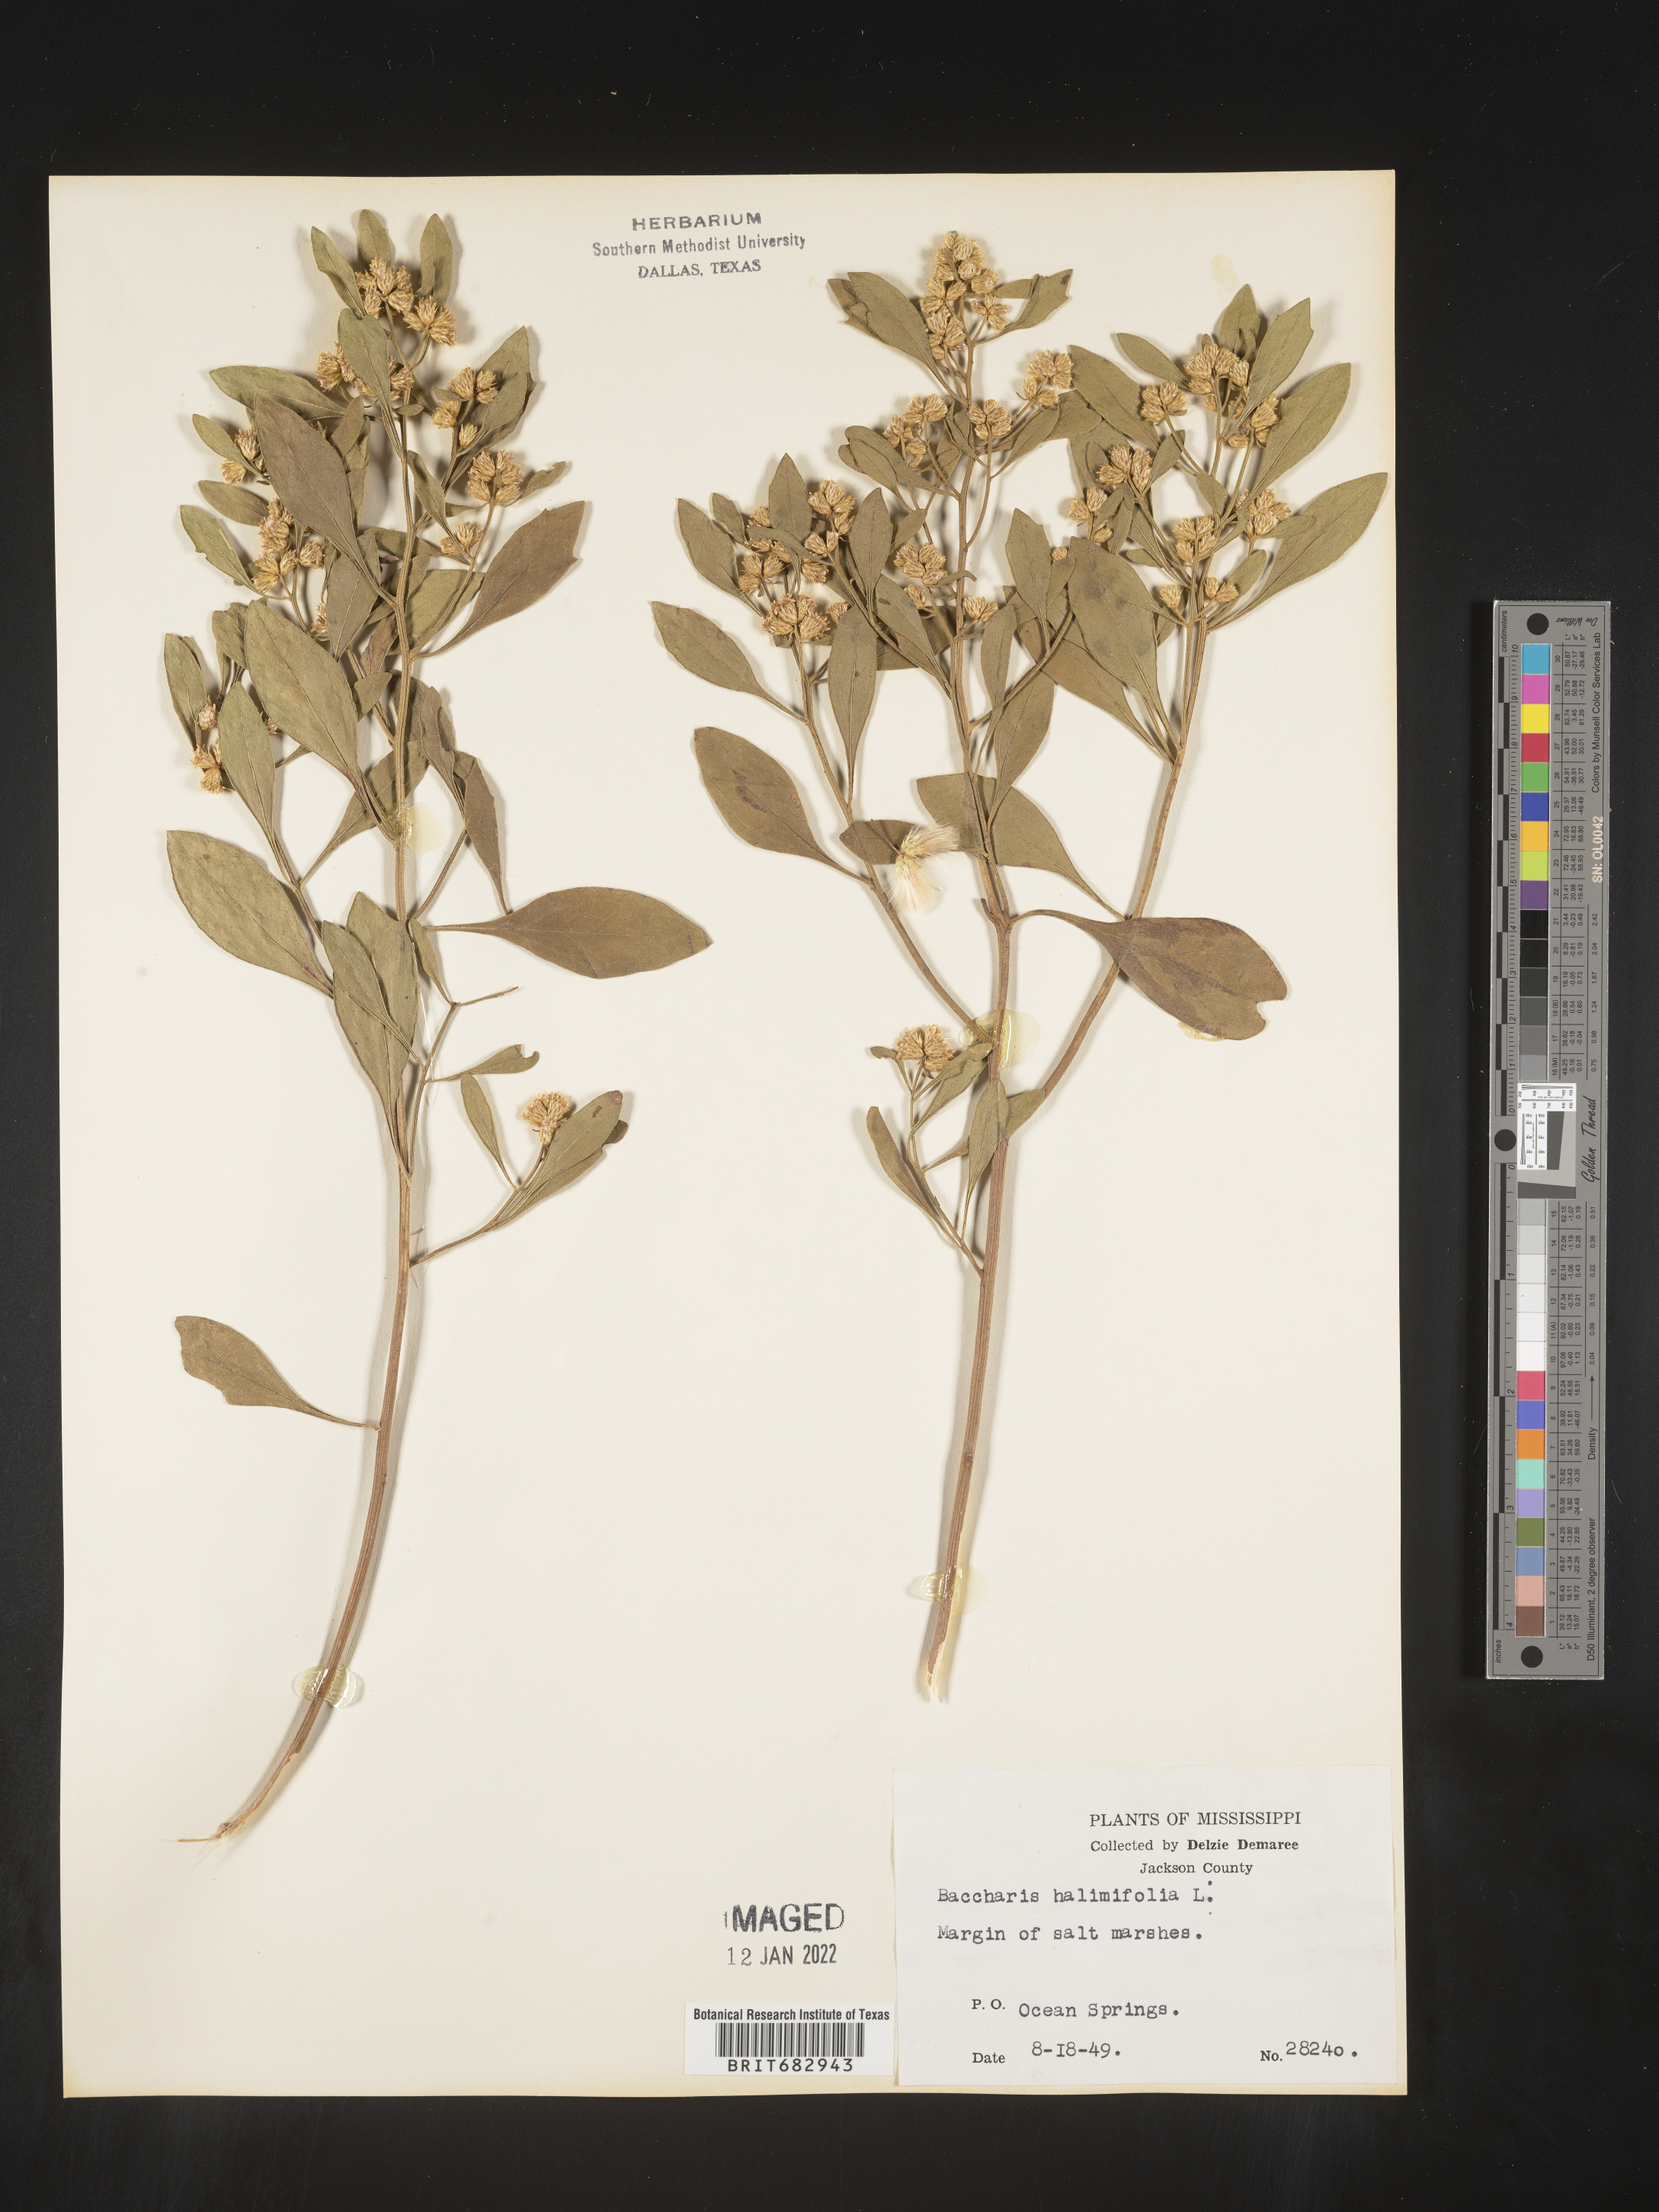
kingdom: Plantae
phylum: Tracheophyta
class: Magnoliopsida
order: Asterales
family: Asteraceae
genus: Nidorella
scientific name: Nidorella ivifolia
